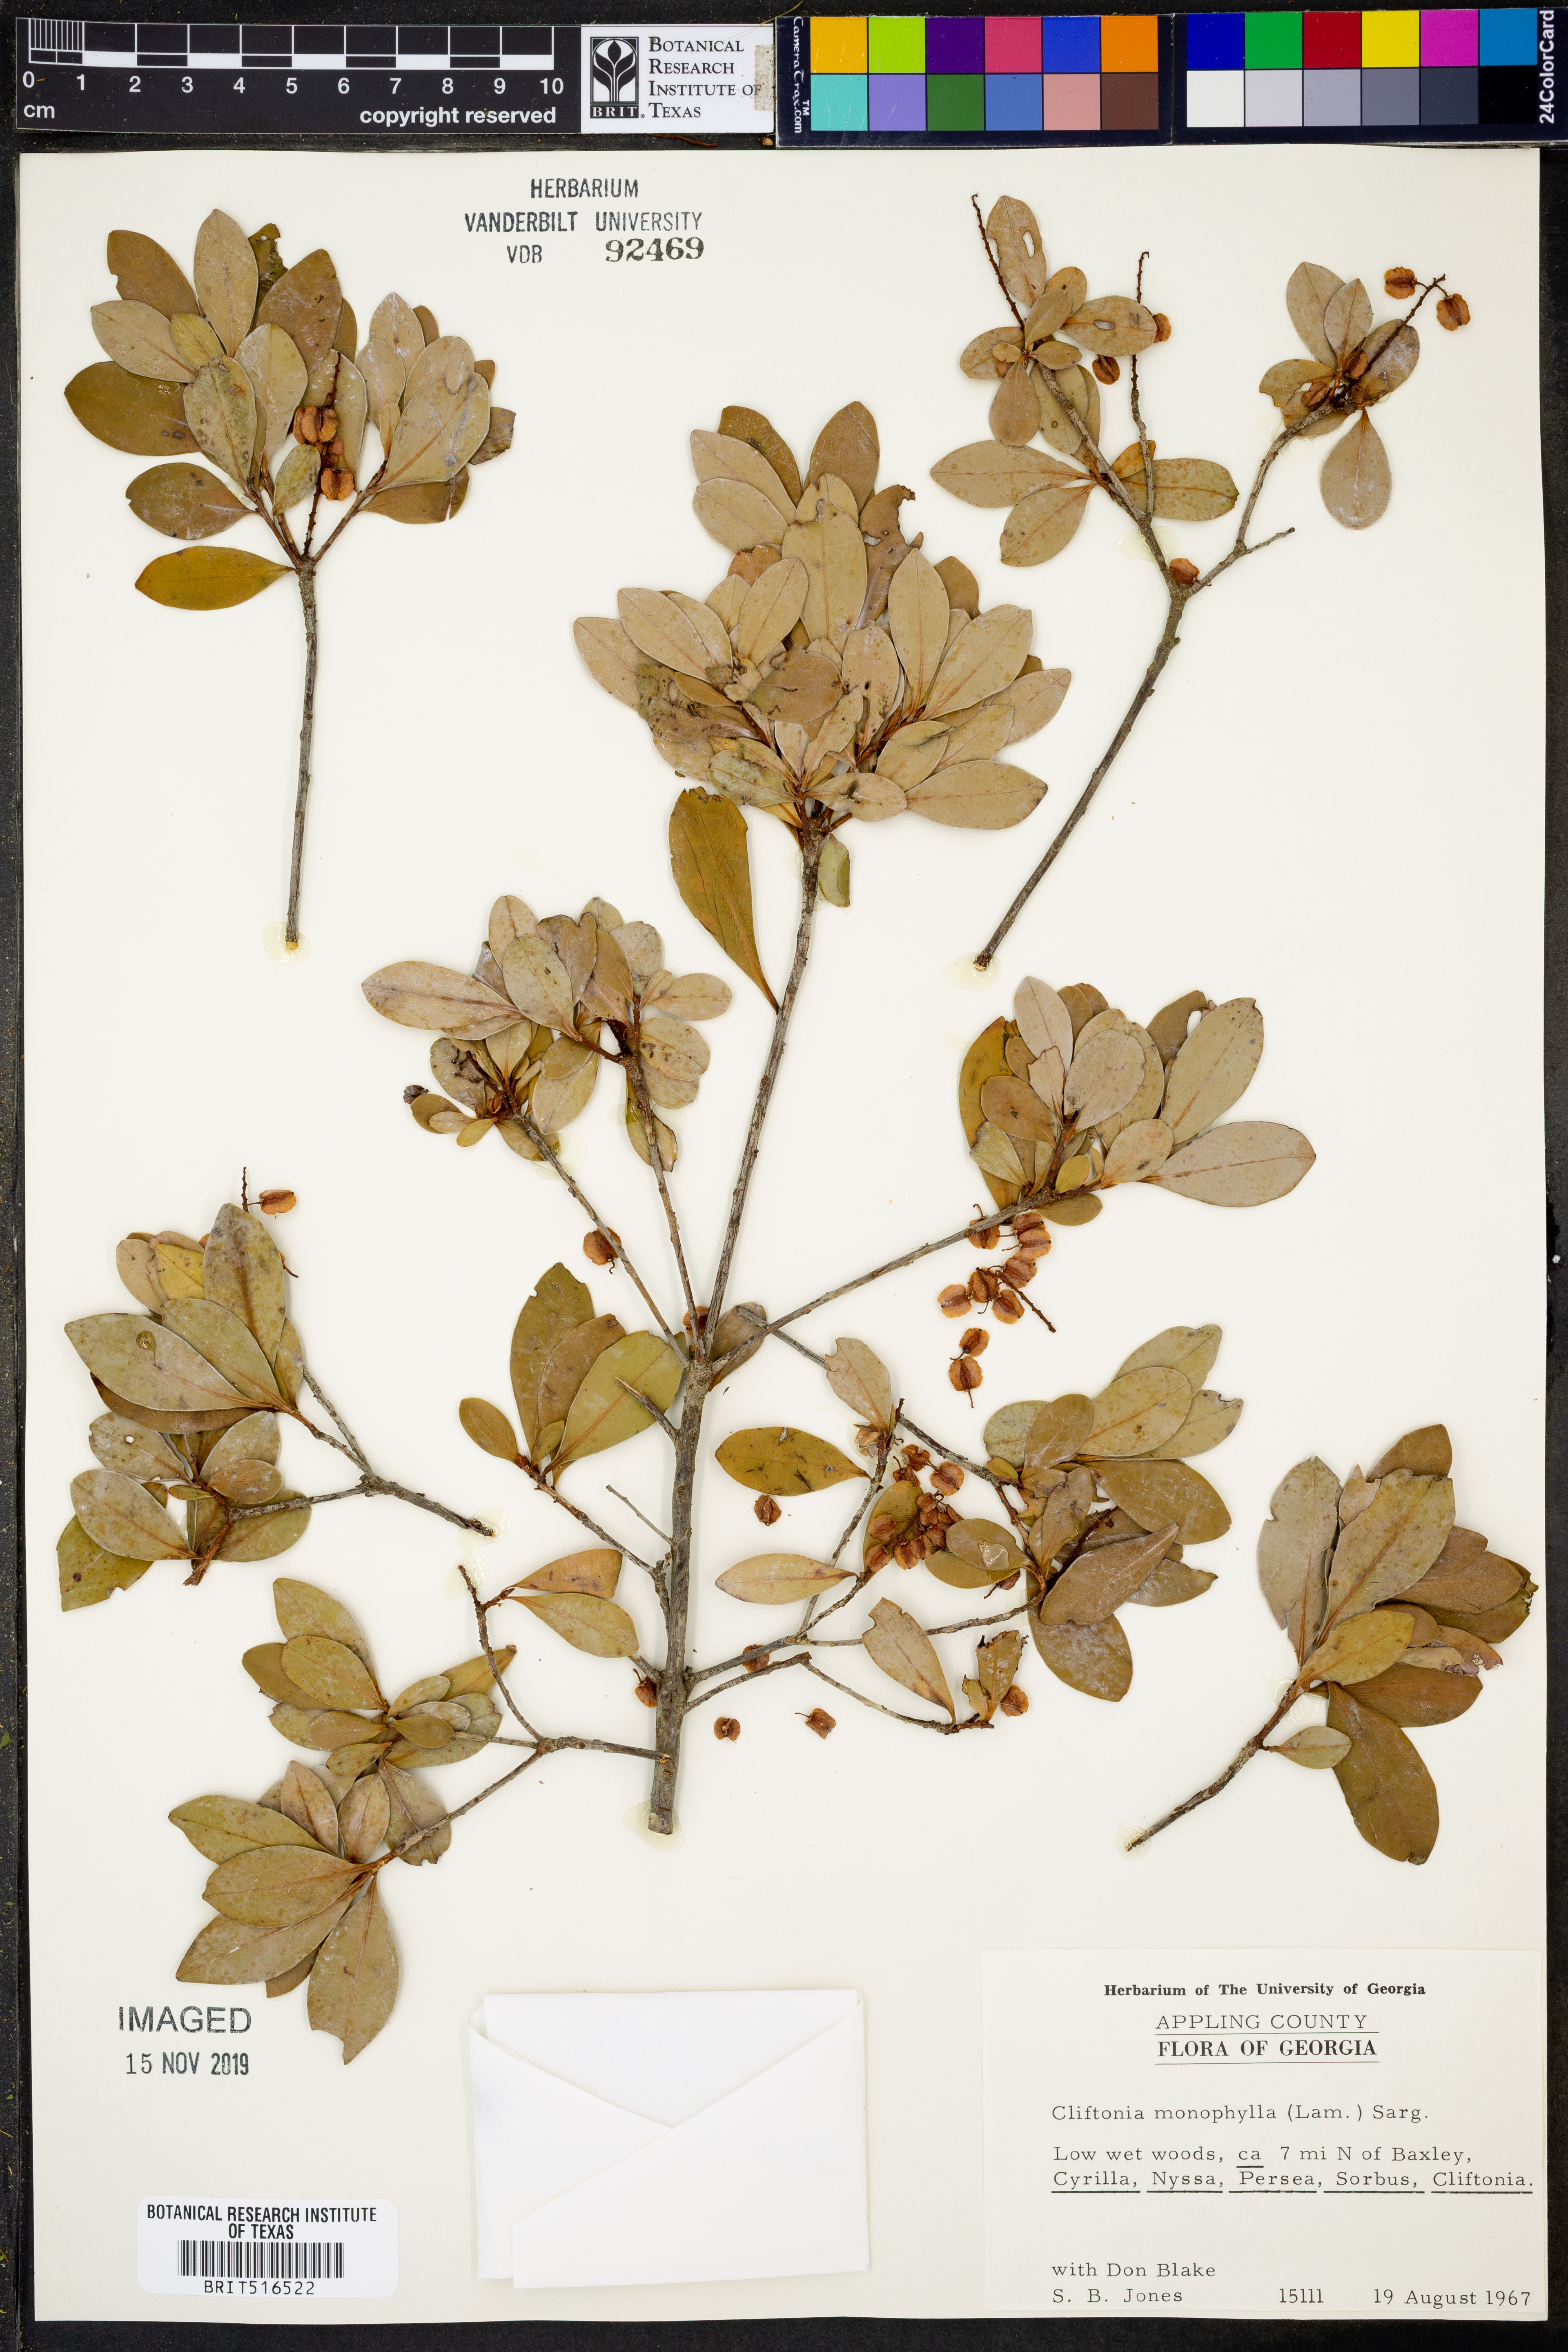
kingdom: Plantae
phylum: Tracheophyta
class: Magnoliopsida
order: Ericales
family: Cyrillaceae
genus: Cliftonia
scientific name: Cliftonia monophylla
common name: Titi
